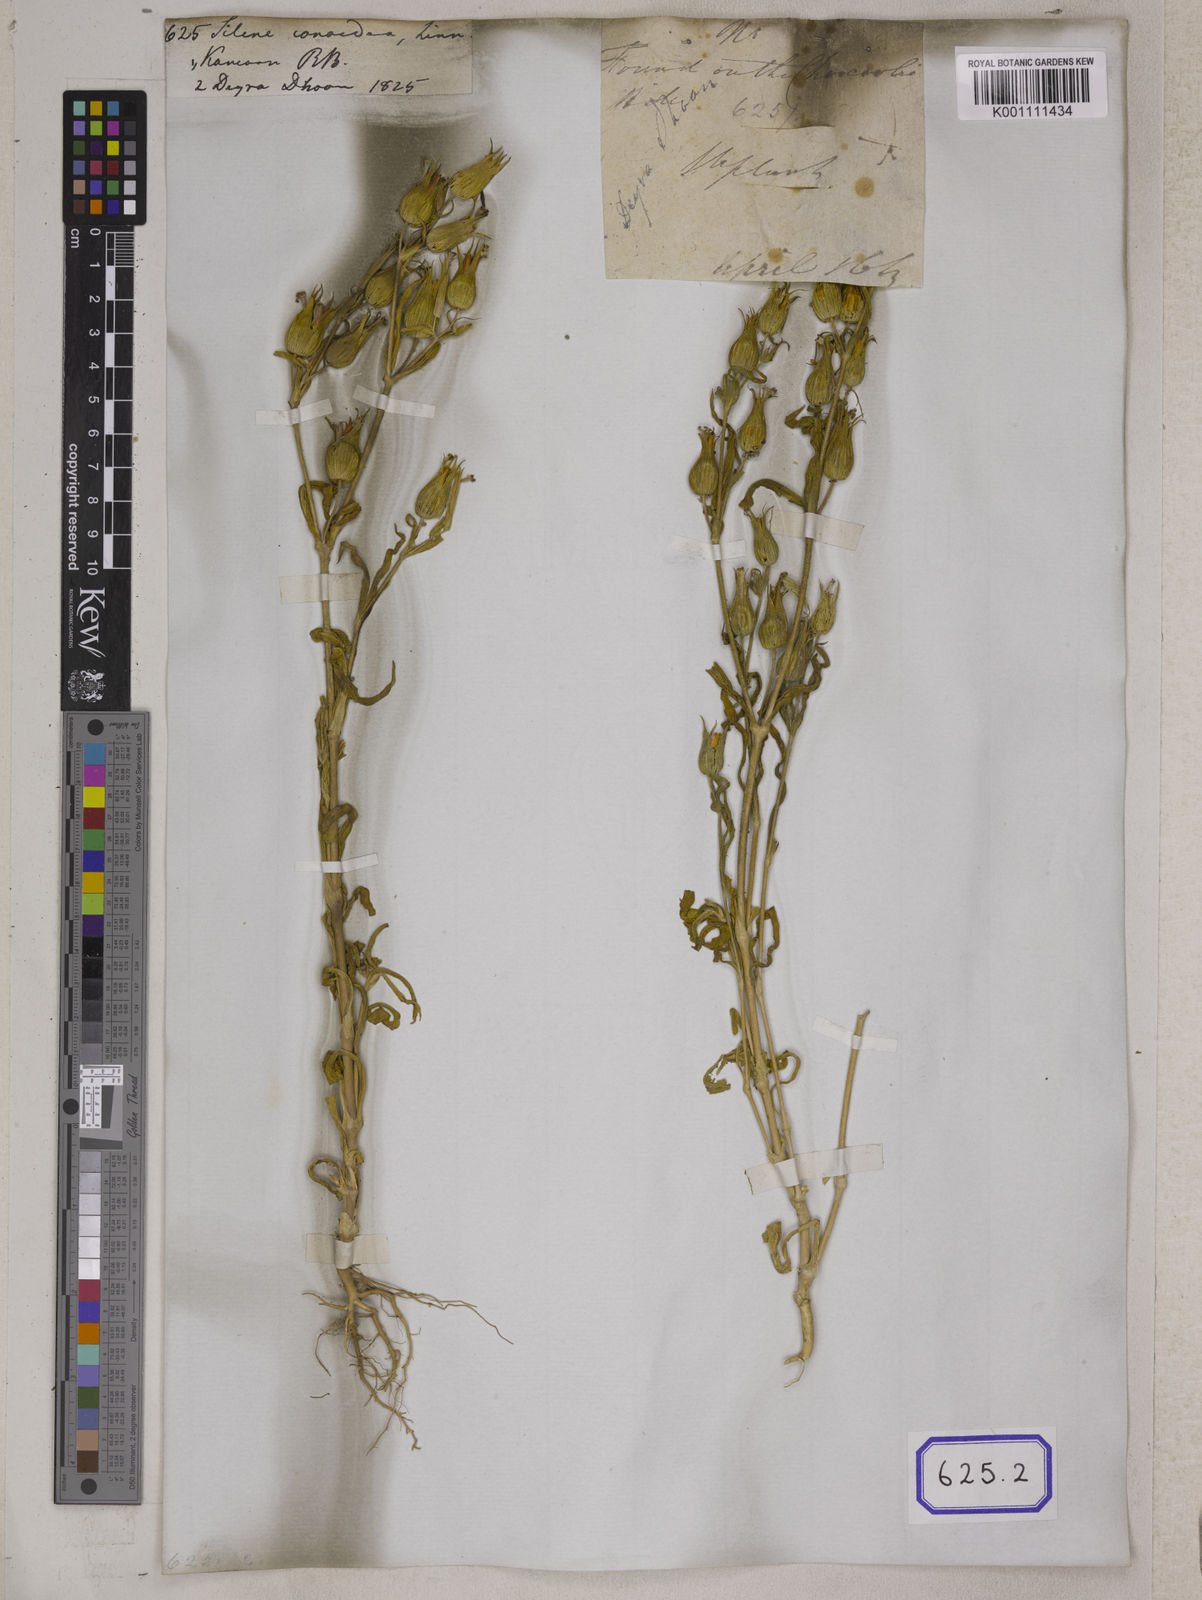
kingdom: Plantae
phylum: Tracheophyta
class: Magnoliopsida
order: Caryophyllales
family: Caryophyllaceae
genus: Silene
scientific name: Silene conoidea
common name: Weed silene
